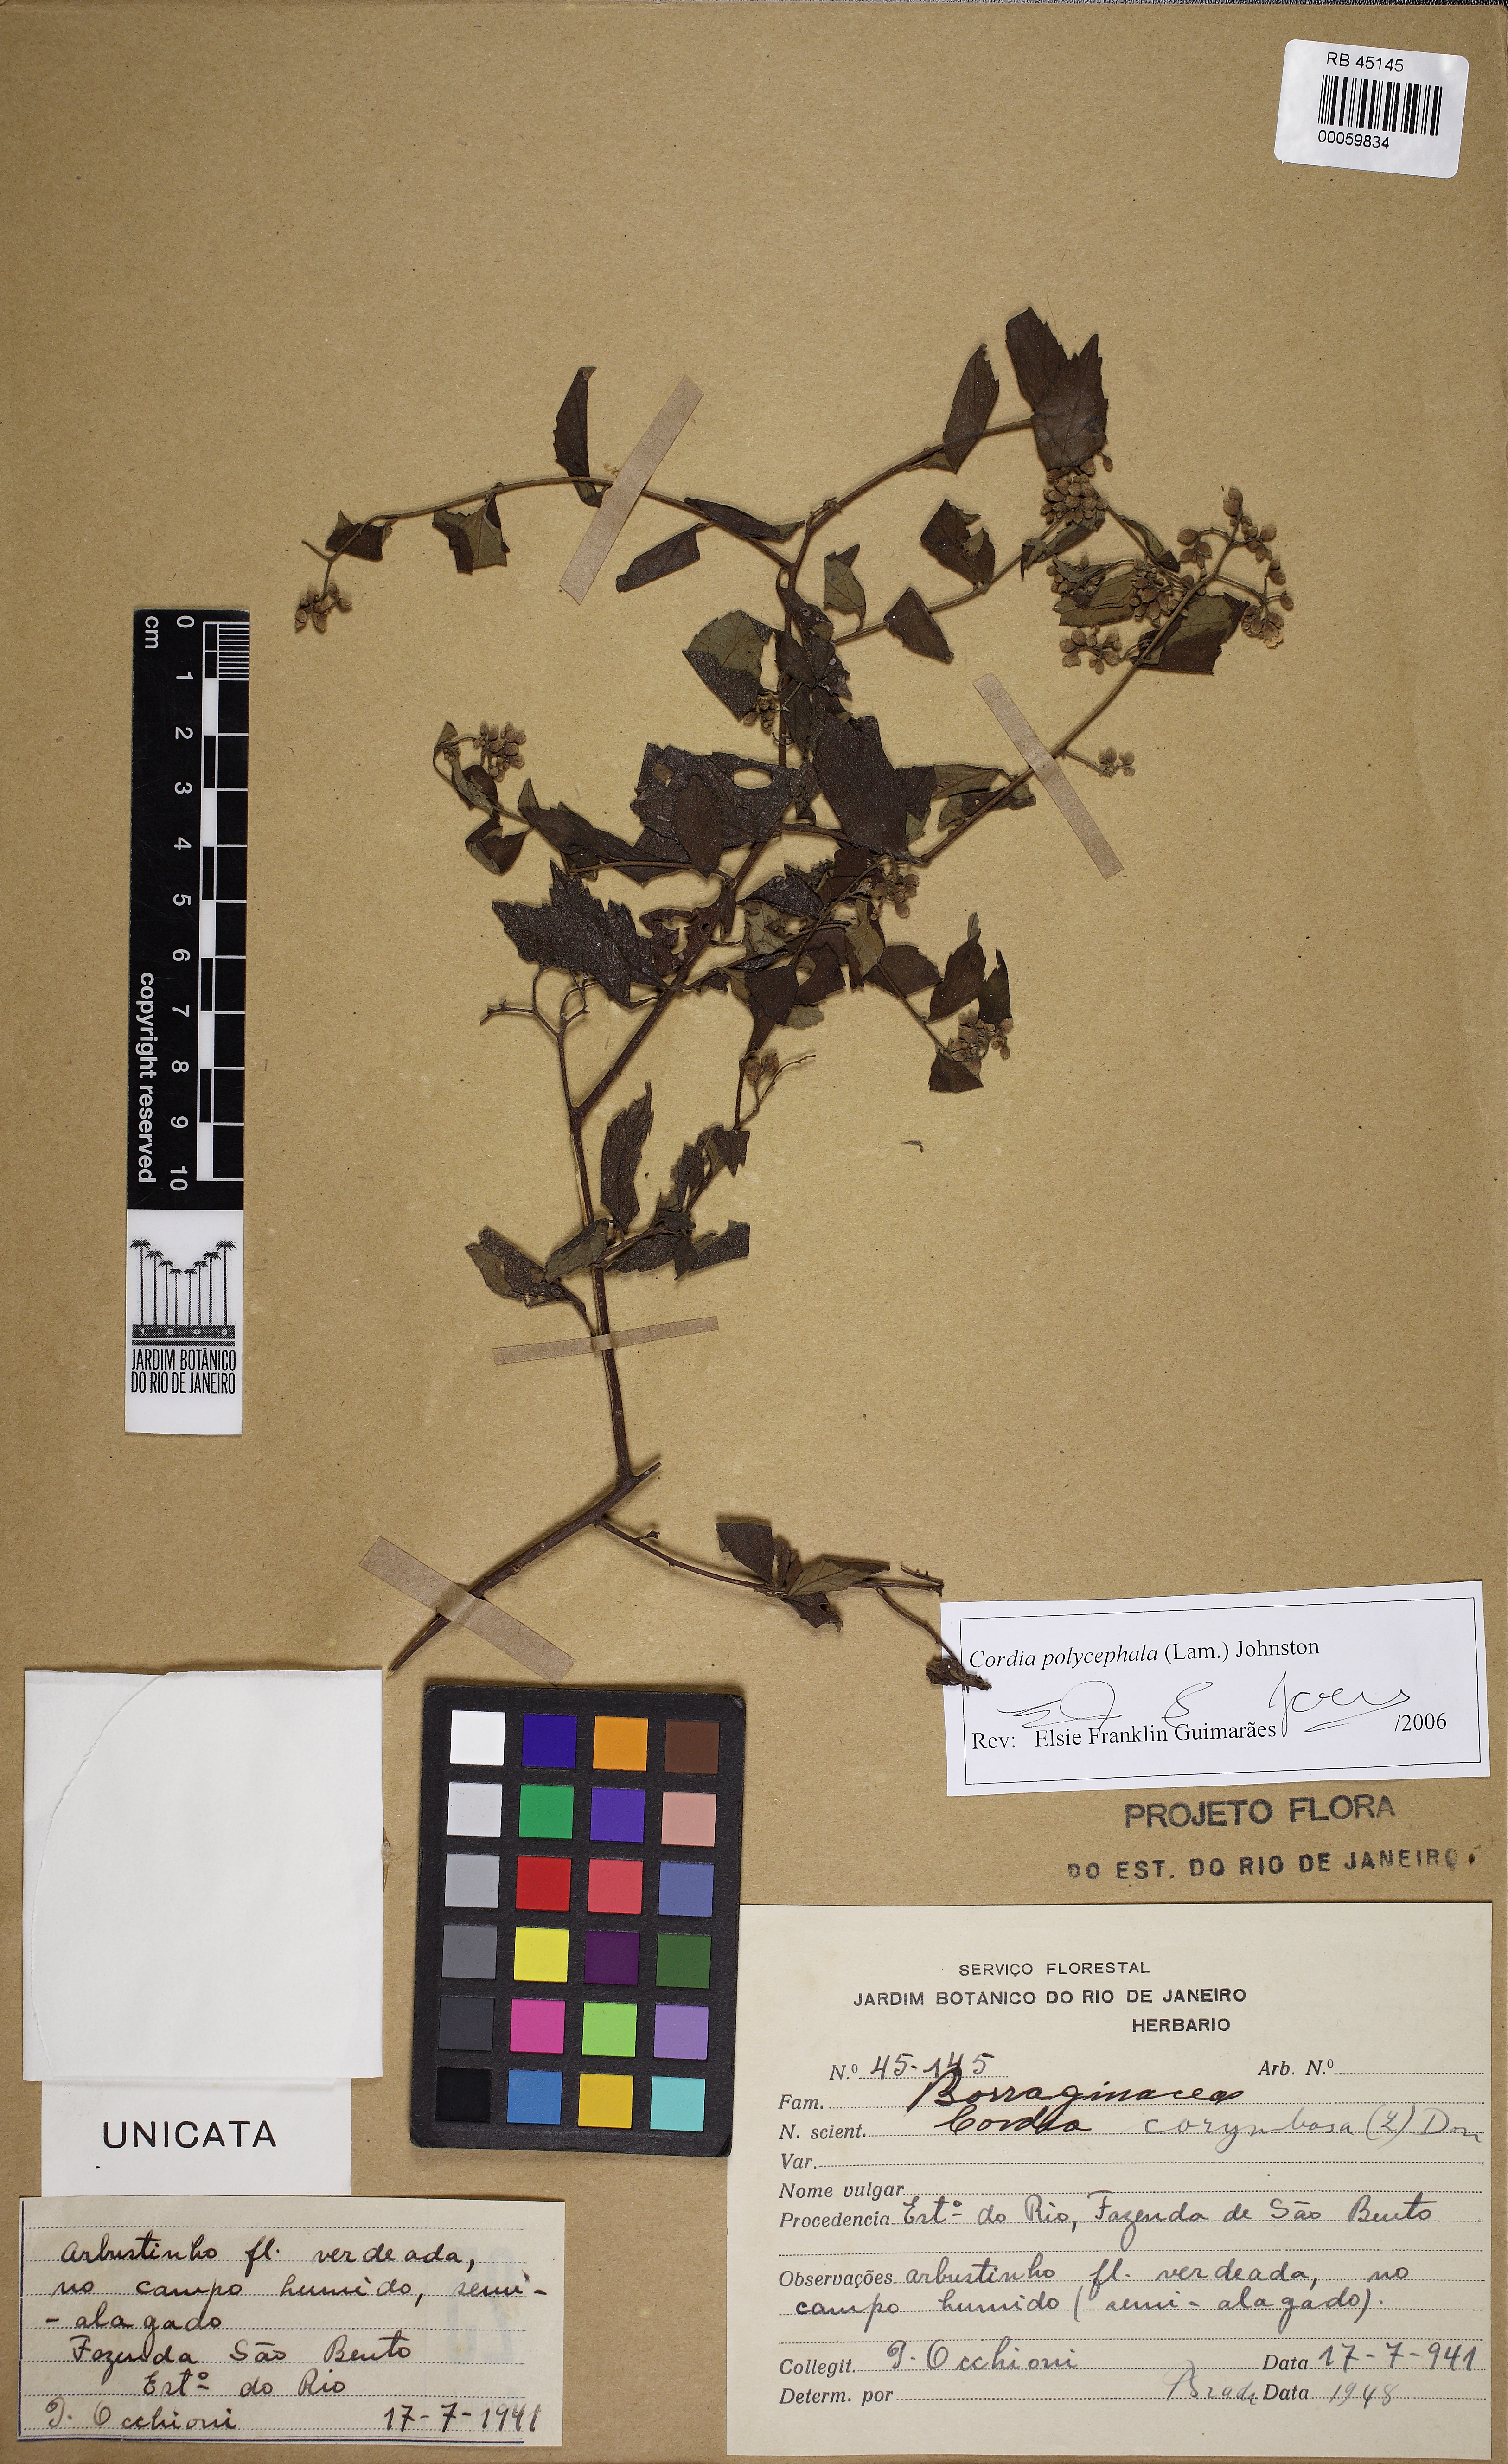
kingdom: Plantae
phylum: Tracheophyta
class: Magnoliopsida
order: Boraginales
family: Cordiaceae
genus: Varronia
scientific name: Varronia polycephala
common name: Black-sage
